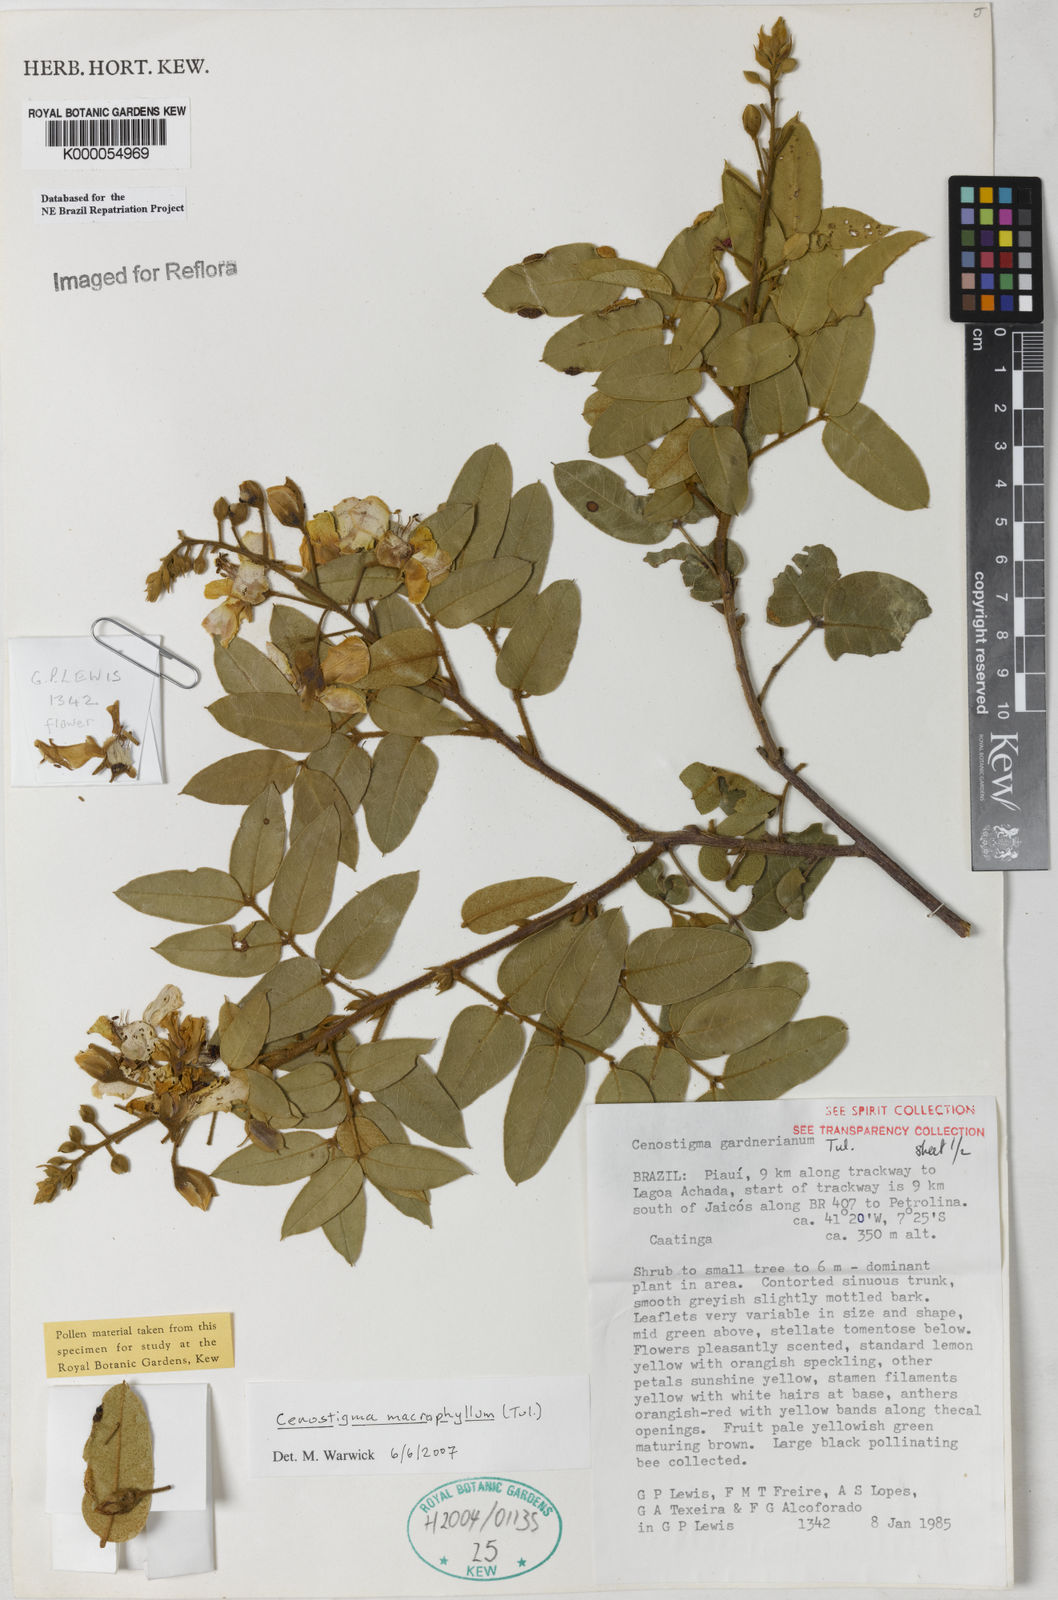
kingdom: Plantae
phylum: Tracheophyta
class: Magnoliopsida
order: Fabales
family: Fabaceae
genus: Cenostigma
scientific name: Cenostigma macrophyllum
